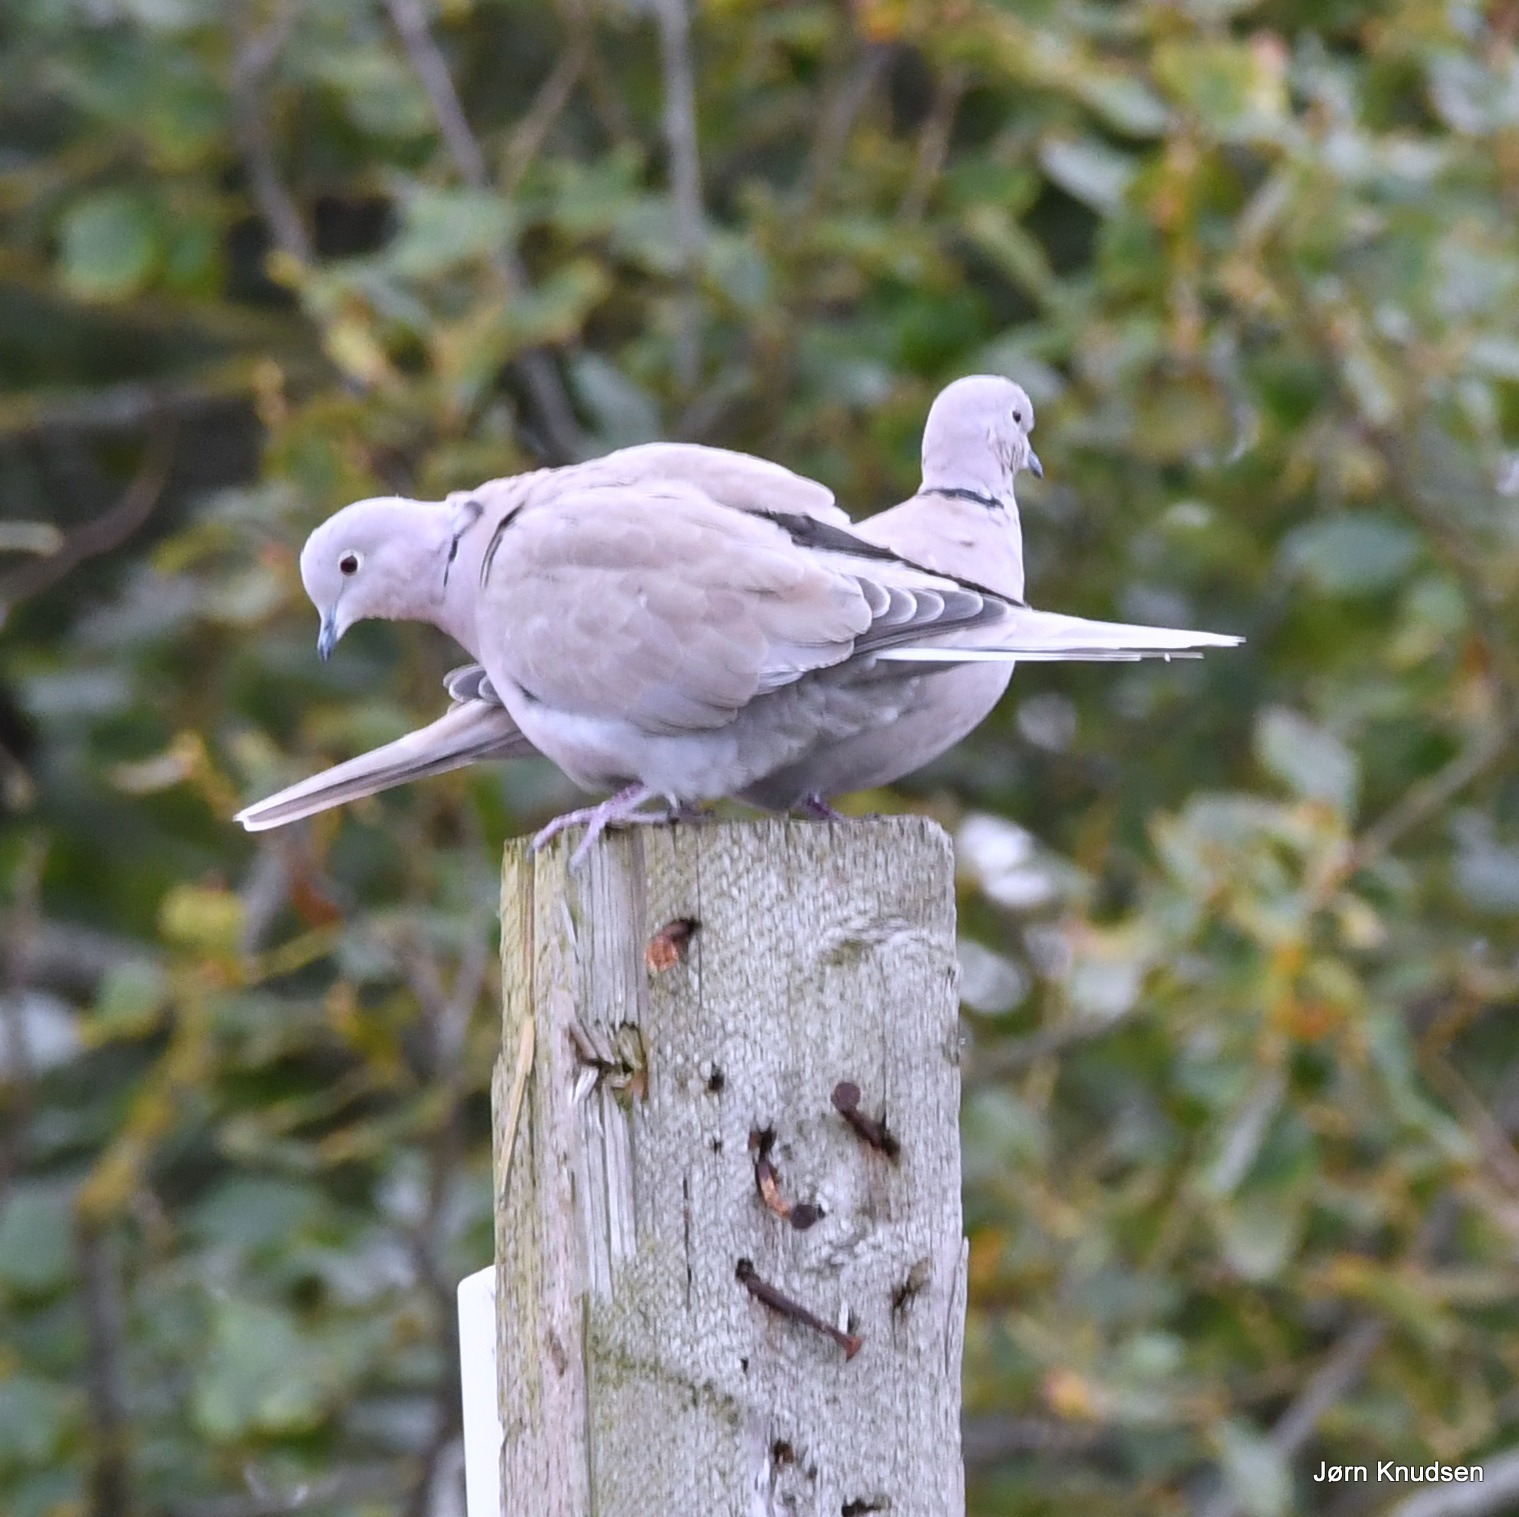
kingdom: Animalia
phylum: Chordata
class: Aves
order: Columbiformes
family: Columbidae
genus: Streptopelia
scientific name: Streptopelia decaocto
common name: Tyrkerdue
